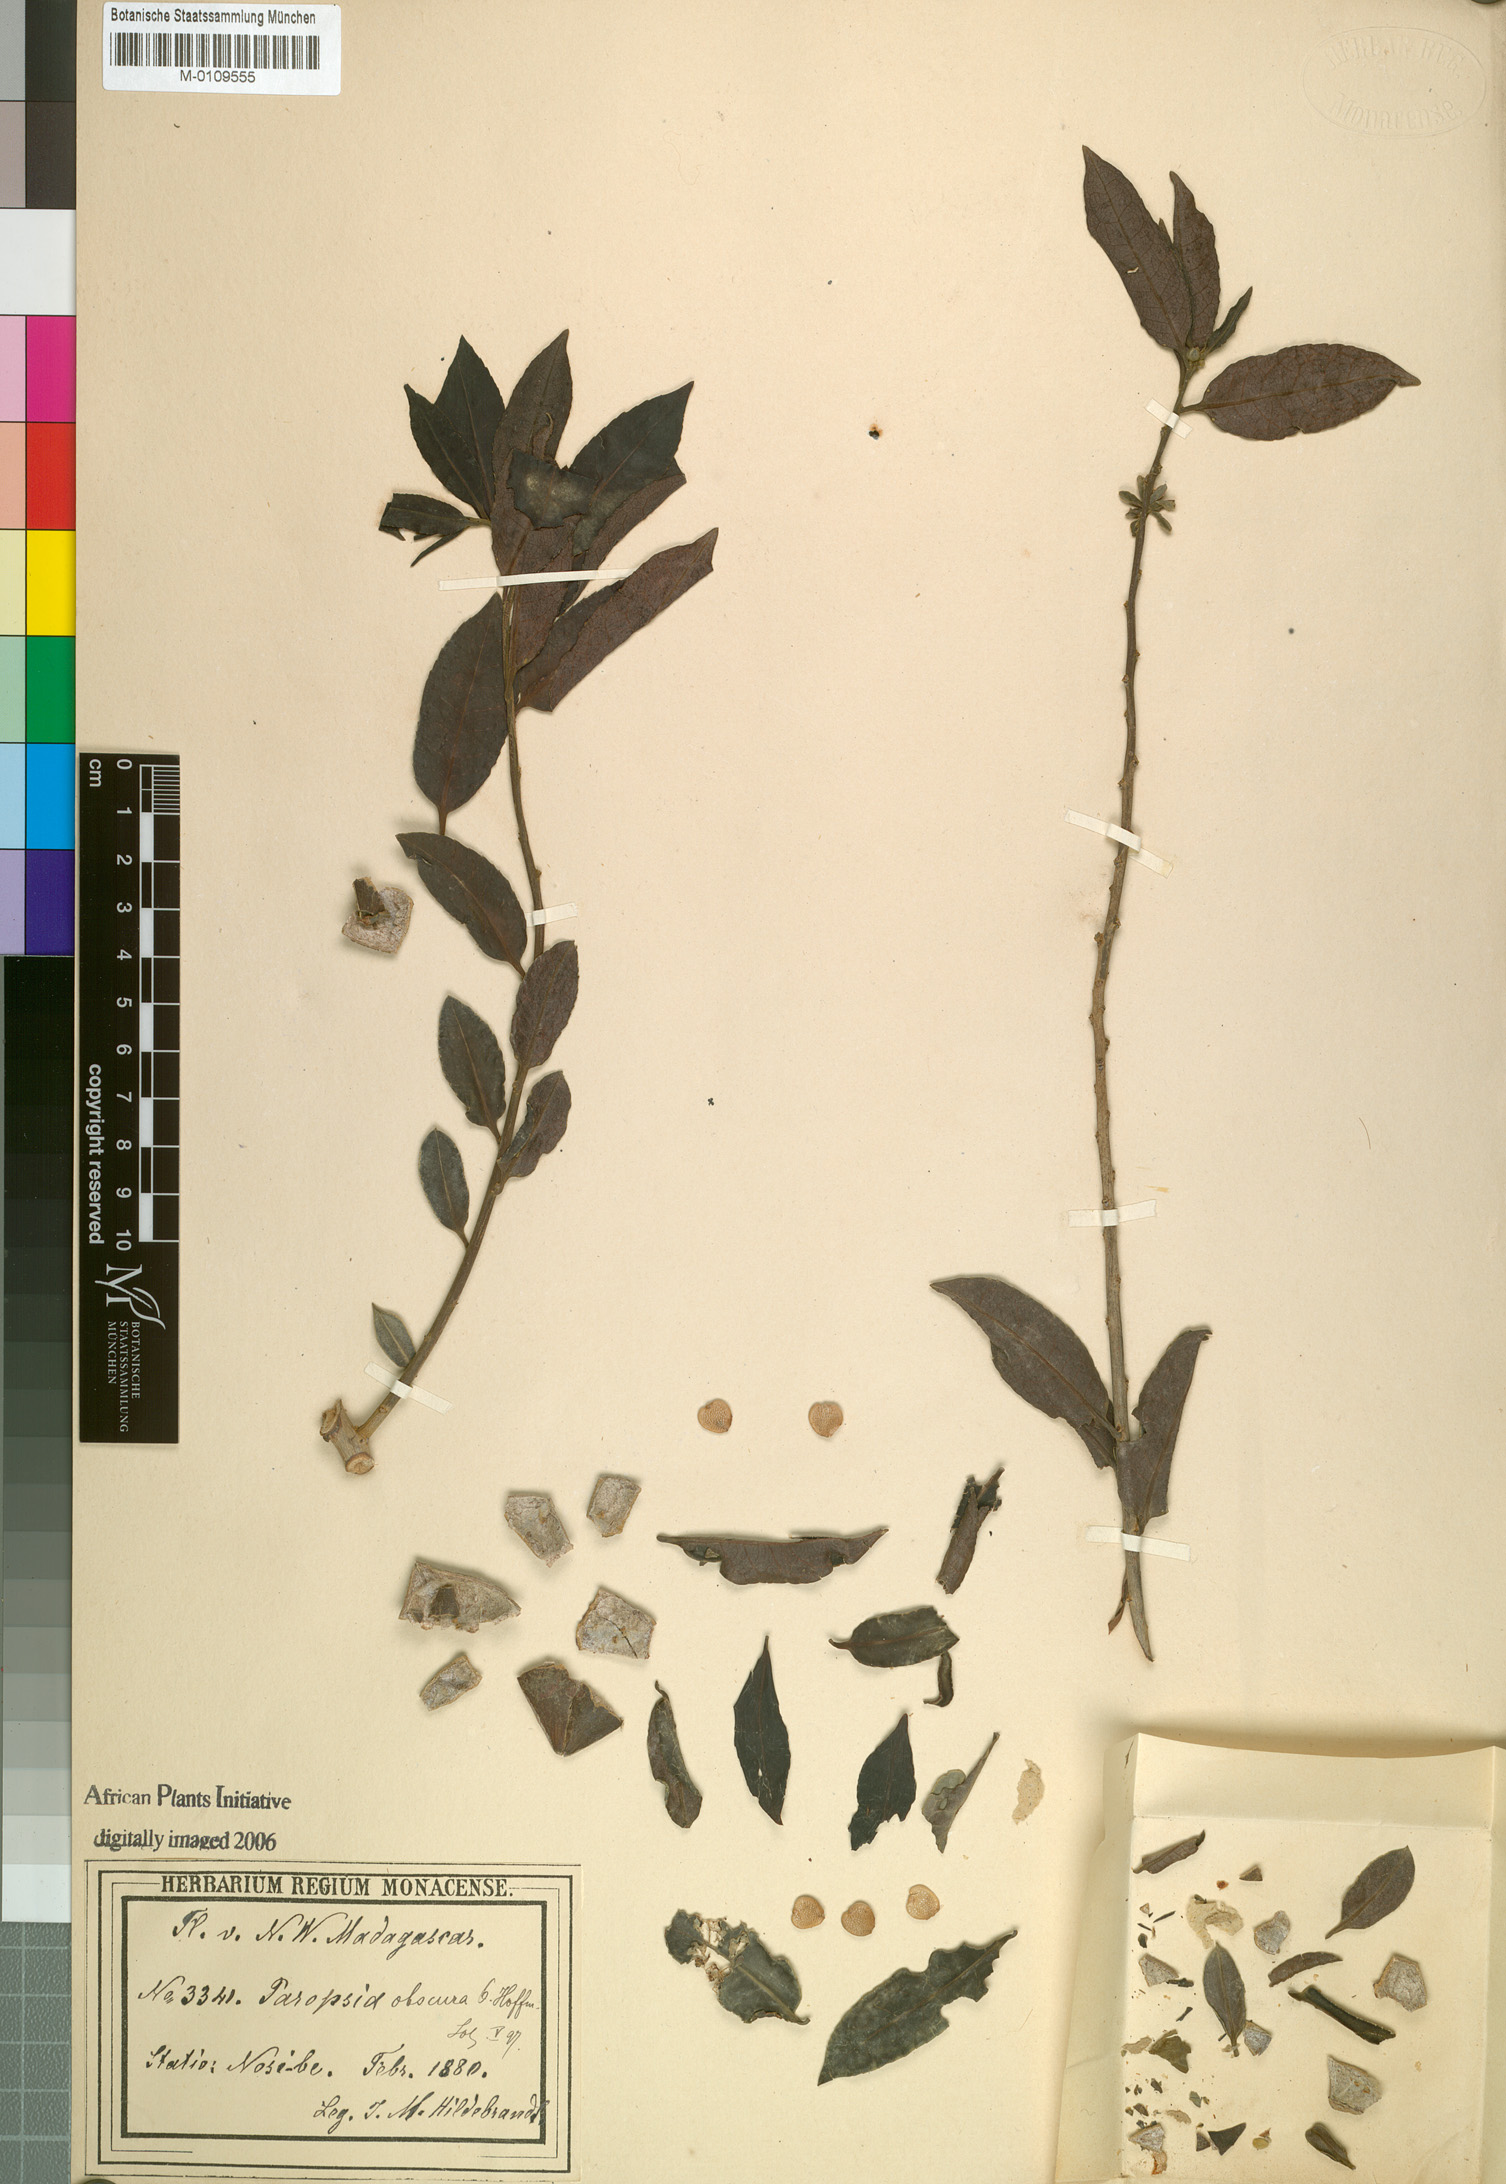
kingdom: Plantae
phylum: Tracheophyta
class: Magnoliopsida
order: Malpighiales
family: Passifloraceae
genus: Paropsia
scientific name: Paropsia obscura
